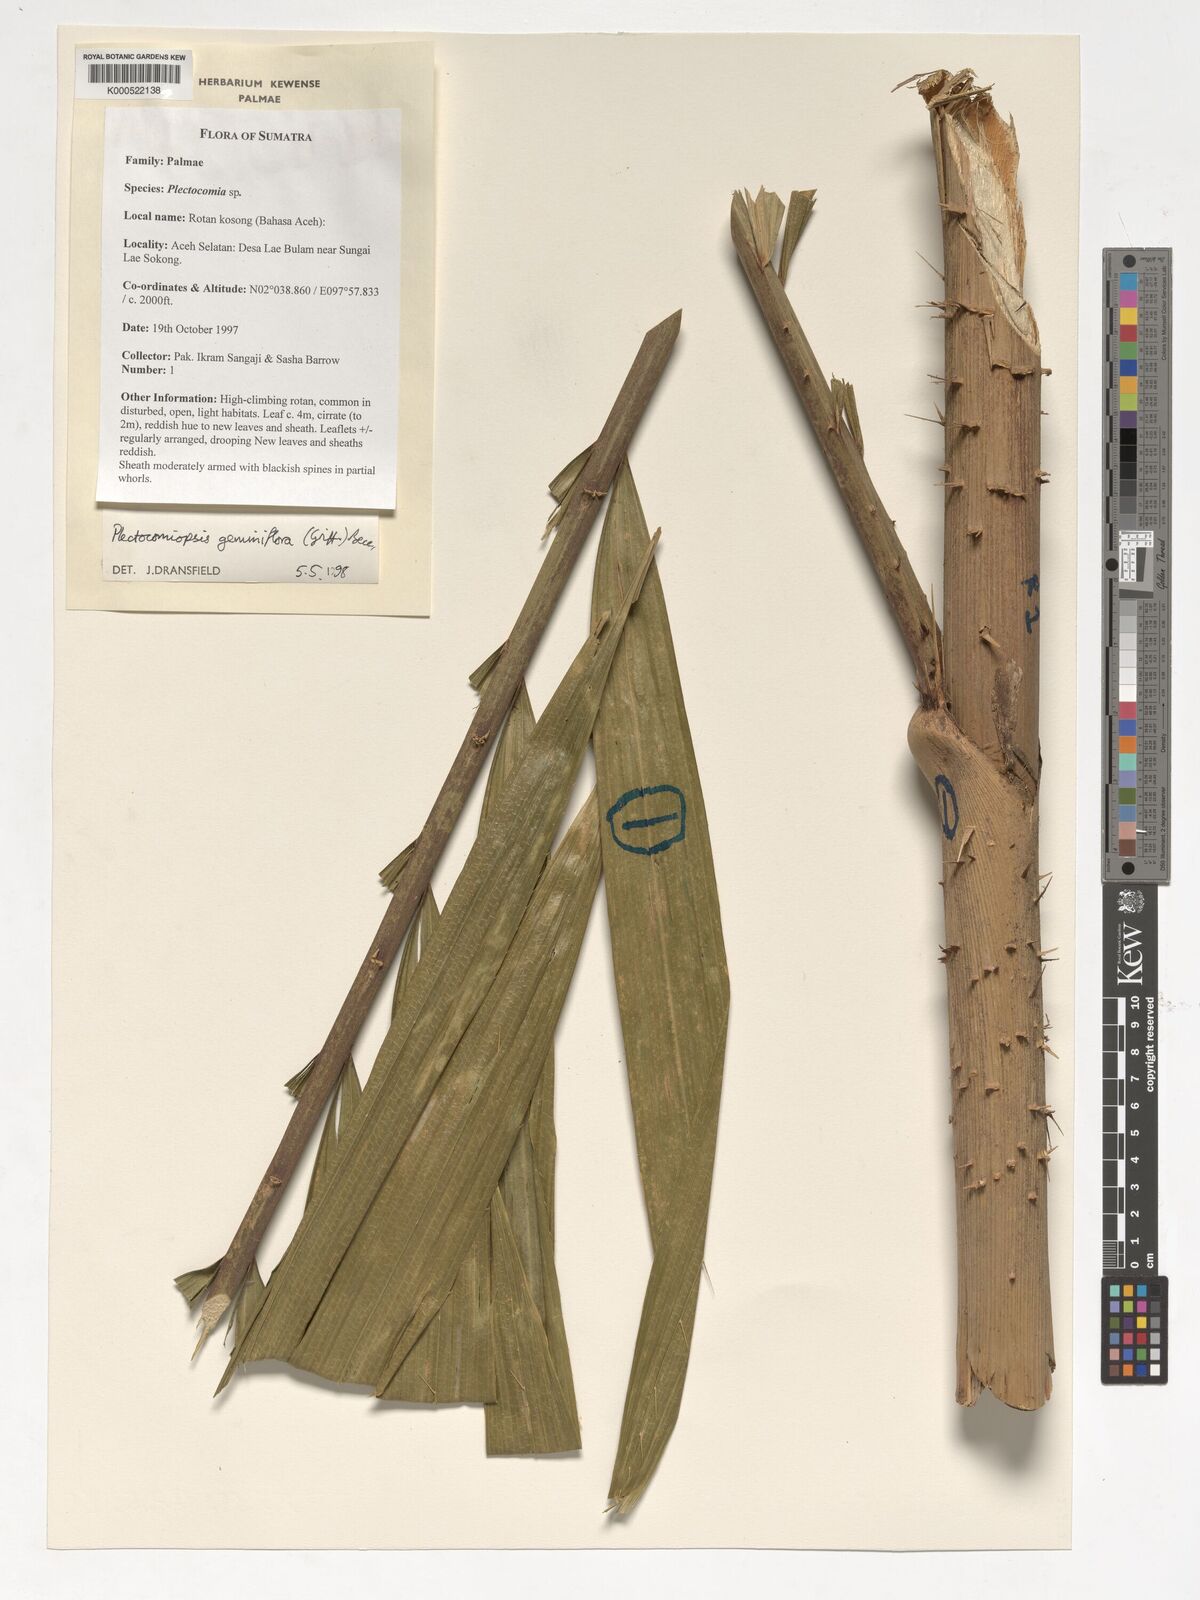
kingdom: Plantae
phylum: Tracheophyta
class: Liliopsida
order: Arecales
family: Arecaceae
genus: Plectocomiopsis
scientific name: Plectocomiopsis geminiflora
